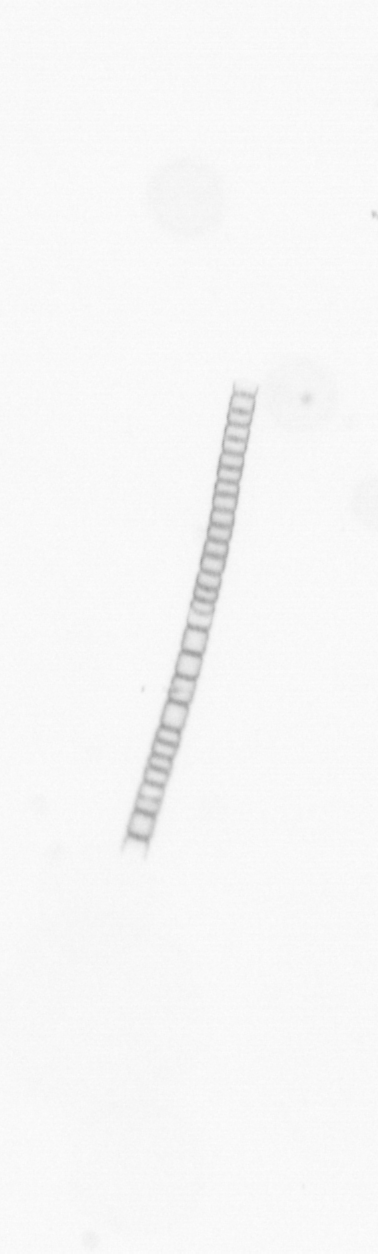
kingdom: Chromista
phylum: Ochrophyta
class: Bacillariophyceae
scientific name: Bacillariophyceae
